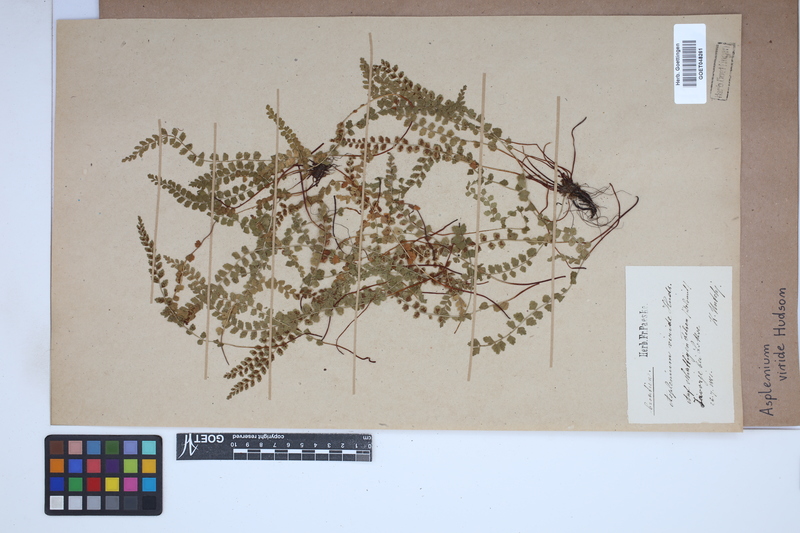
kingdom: Plantae
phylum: Tracheophyta
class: Polypodiopsida
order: Polypodiales
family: Aspleniaceae
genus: Asplenium
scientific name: Asplenium viride
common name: Green spleenwort
